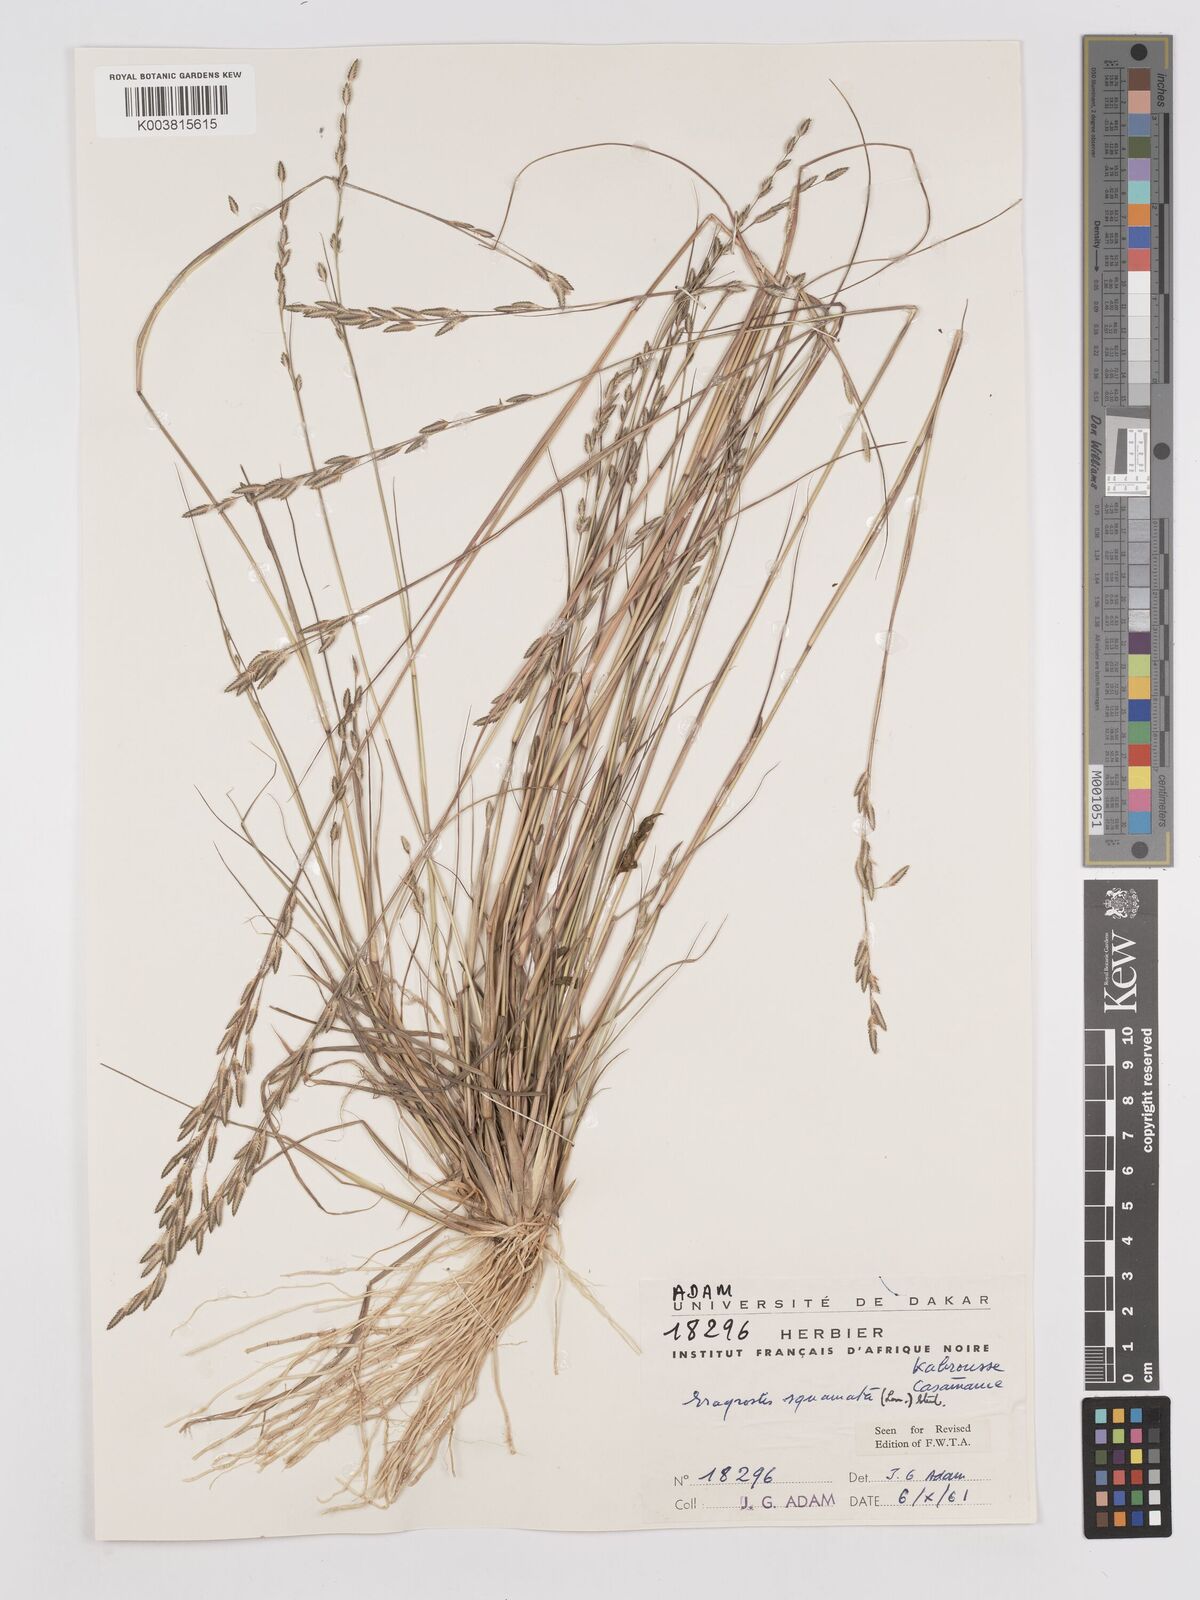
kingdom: Plantae
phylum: Tracheophyta
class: Liliopsida
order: Poales
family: Poaceae
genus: Eragrostis
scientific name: Eragrostis squamata
